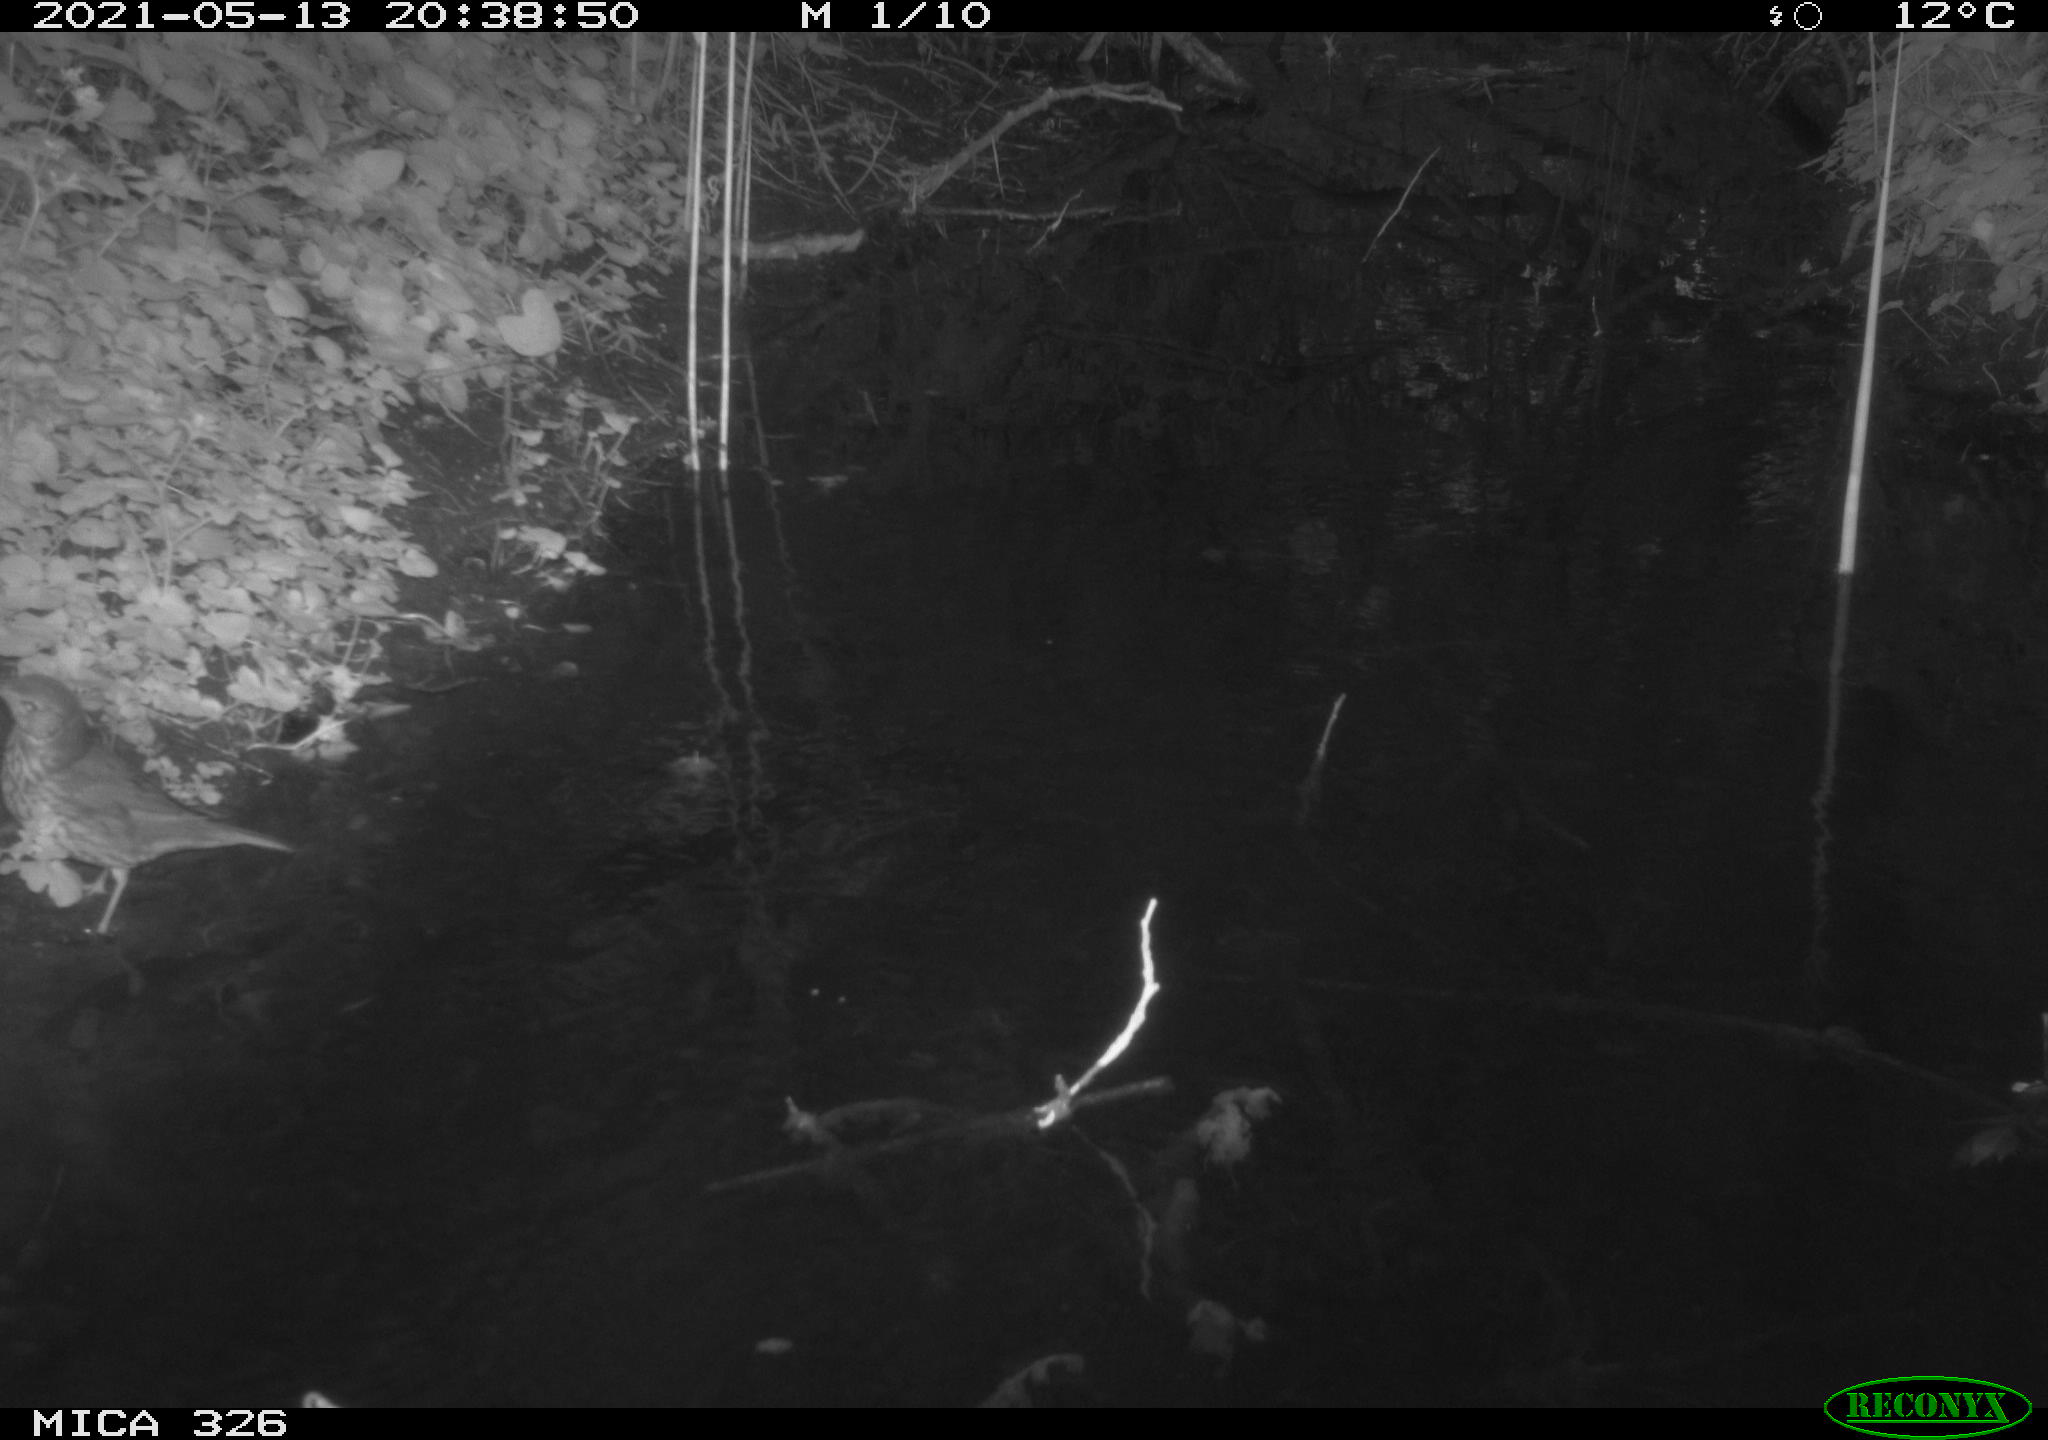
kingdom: Animalia
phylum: Chordata
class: Aves
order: Passeriformes
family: Turdidae
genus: Turdus
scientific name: Turdus philomelos
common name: Song thrush
